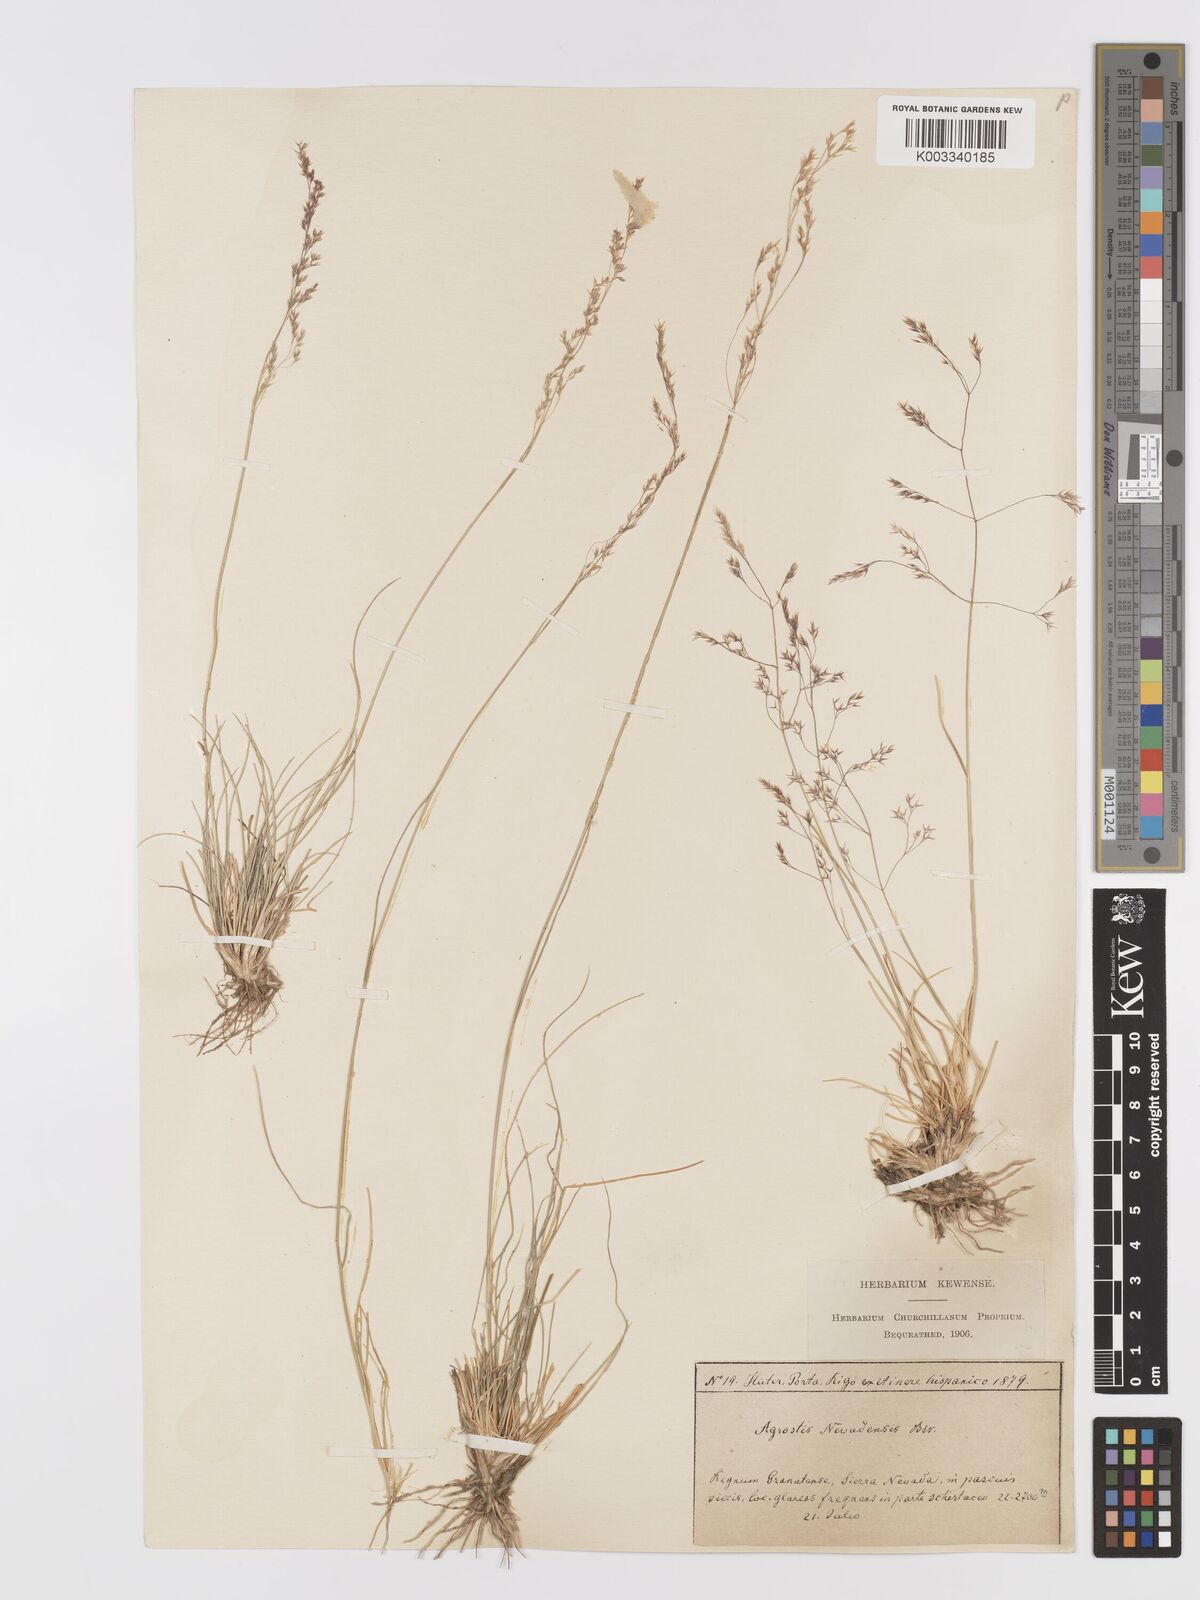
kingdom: Plantae
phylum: Tracheophyta
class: Liliopsida
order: Poales
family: Poaceae
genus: Agrostis
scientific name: Agrostis nevadensis
